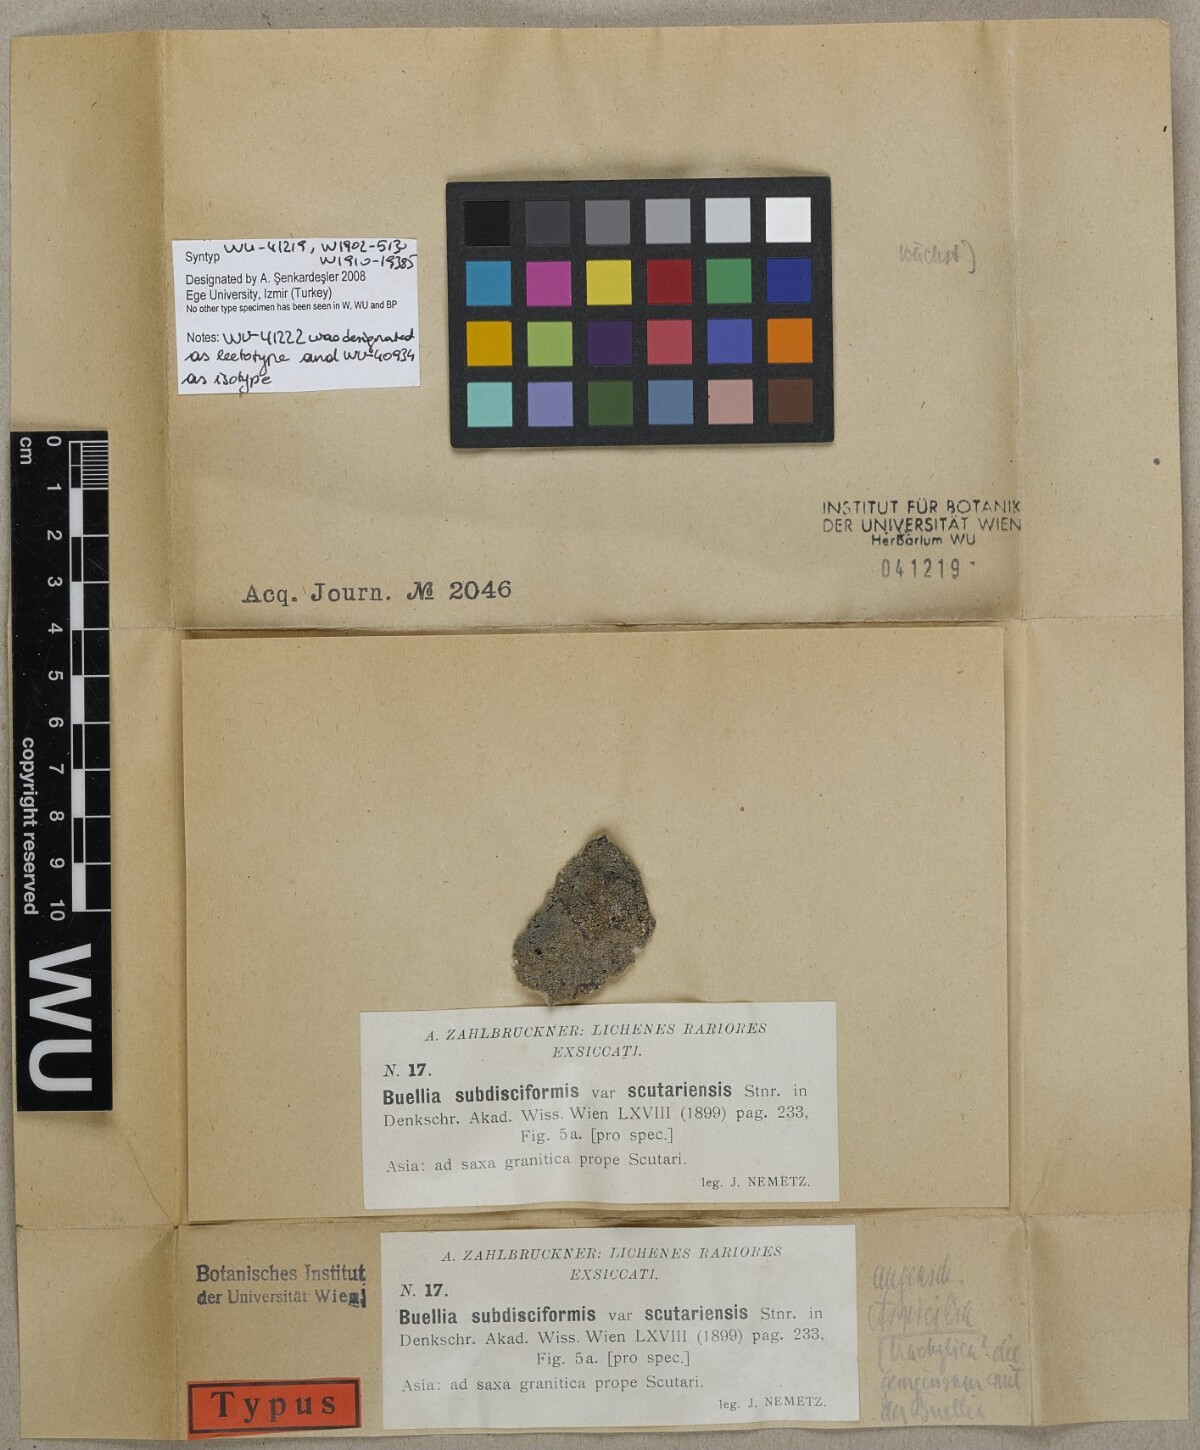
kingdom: Fungi
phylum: Ascomycota
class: Lecanoromycetes
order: Caliciales
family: Caliciaceae
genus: Buellia
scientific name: Buellia subdisciformis
